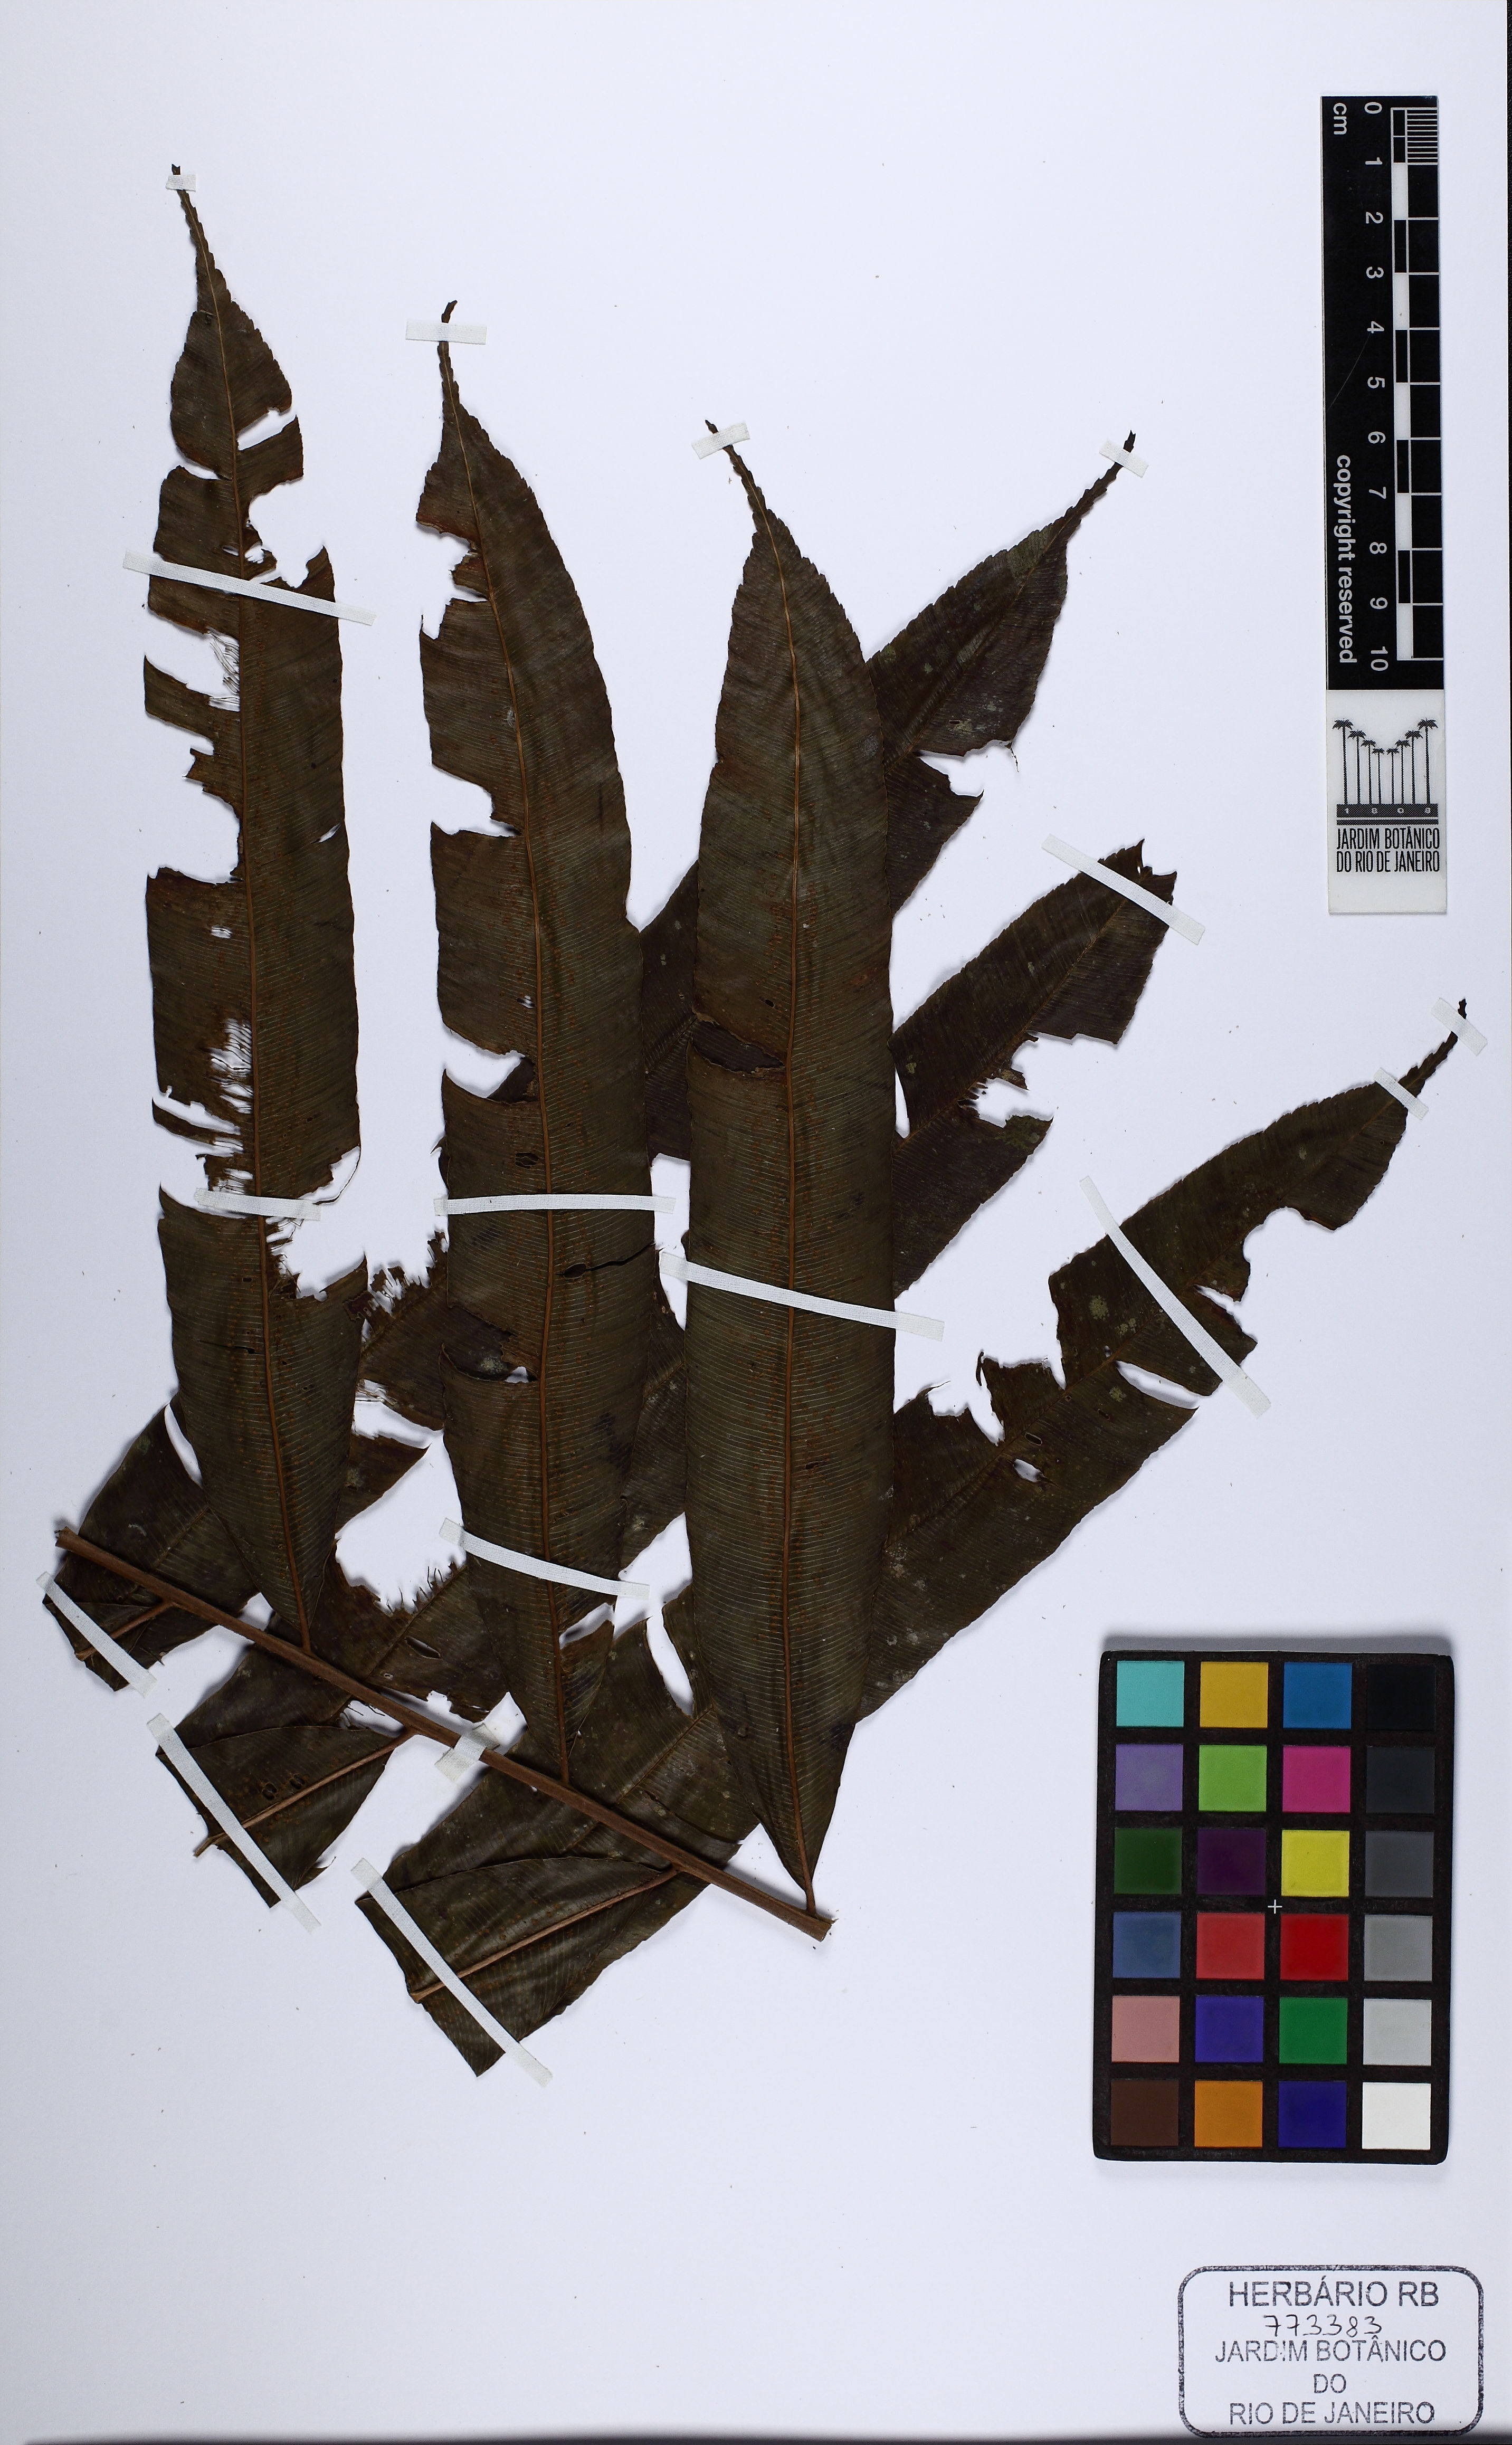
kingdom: Plantae
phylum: Tracheophyta
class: Polypodiopsida
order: Cyatheales
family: Metaxyaceae
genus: Metaxya
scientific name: Metaxya parkeri
